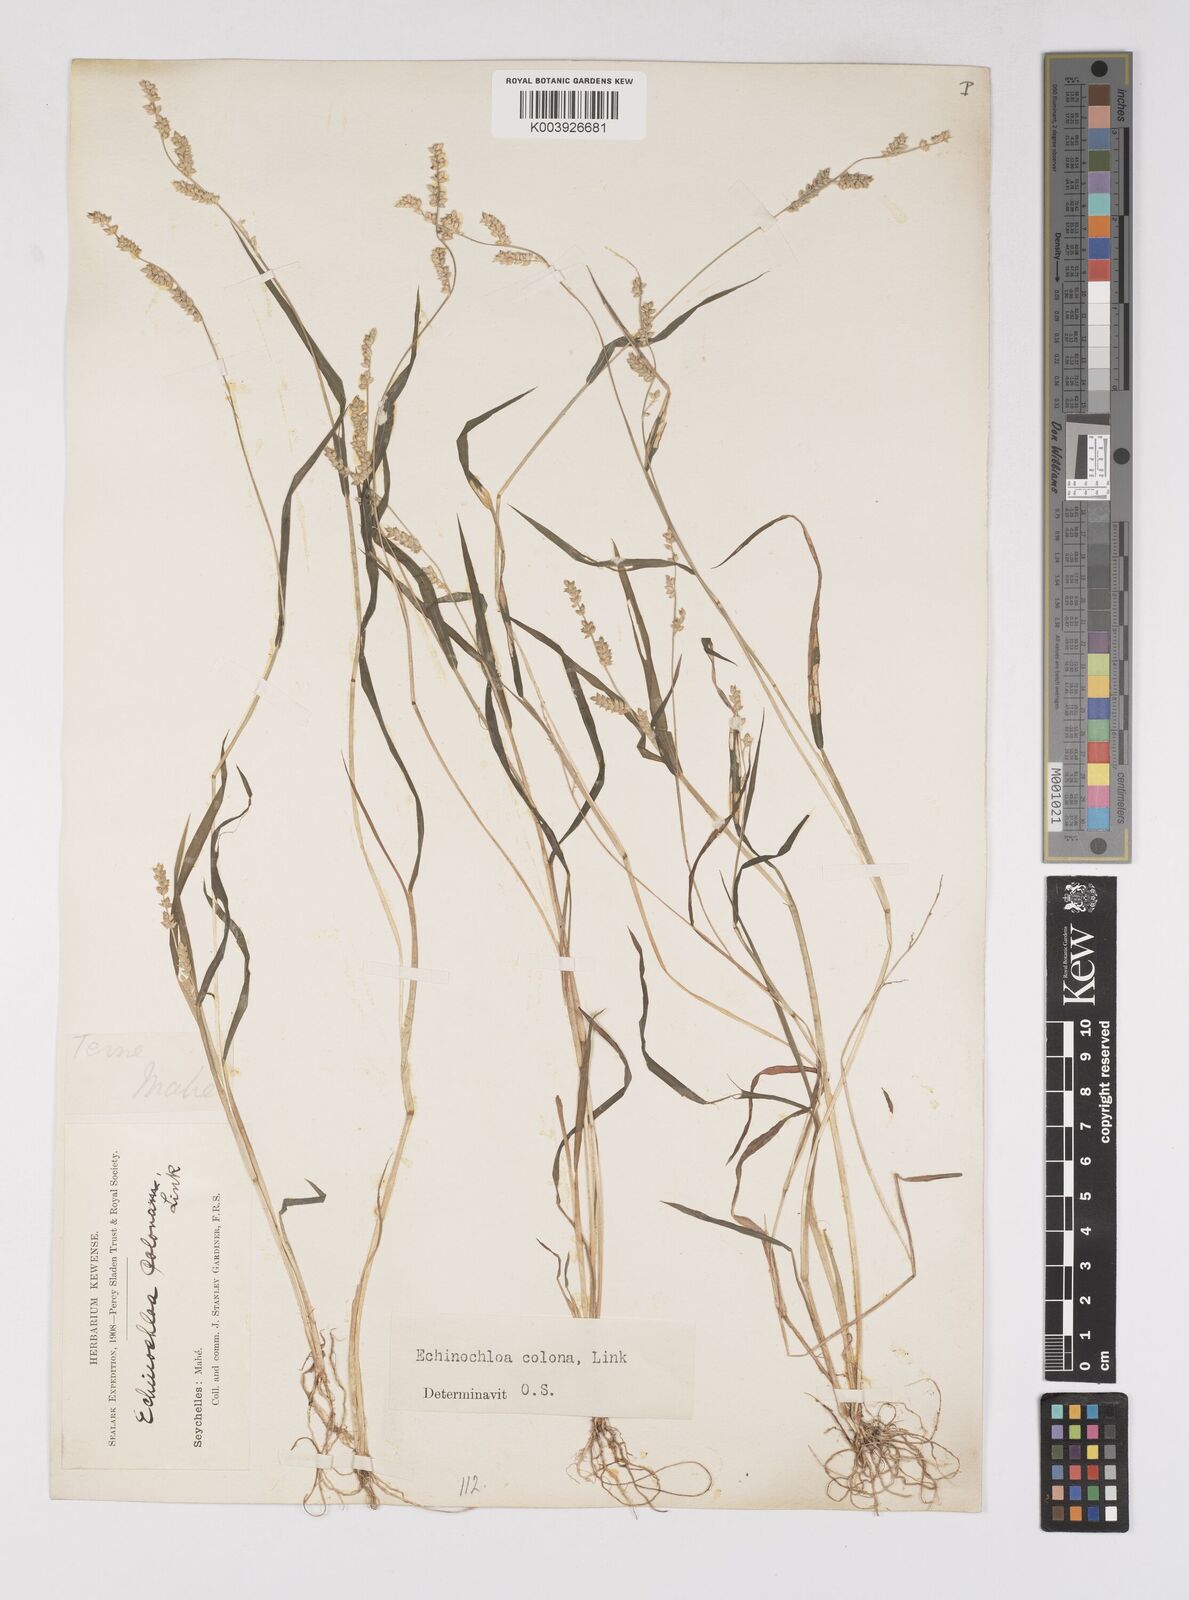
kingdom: Plantae
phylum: Tracheophyta
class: Liliopsida
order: Poales
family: Poaceae
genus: Echinochloa
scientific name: Echinochloa colonum
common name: Jungle rice
